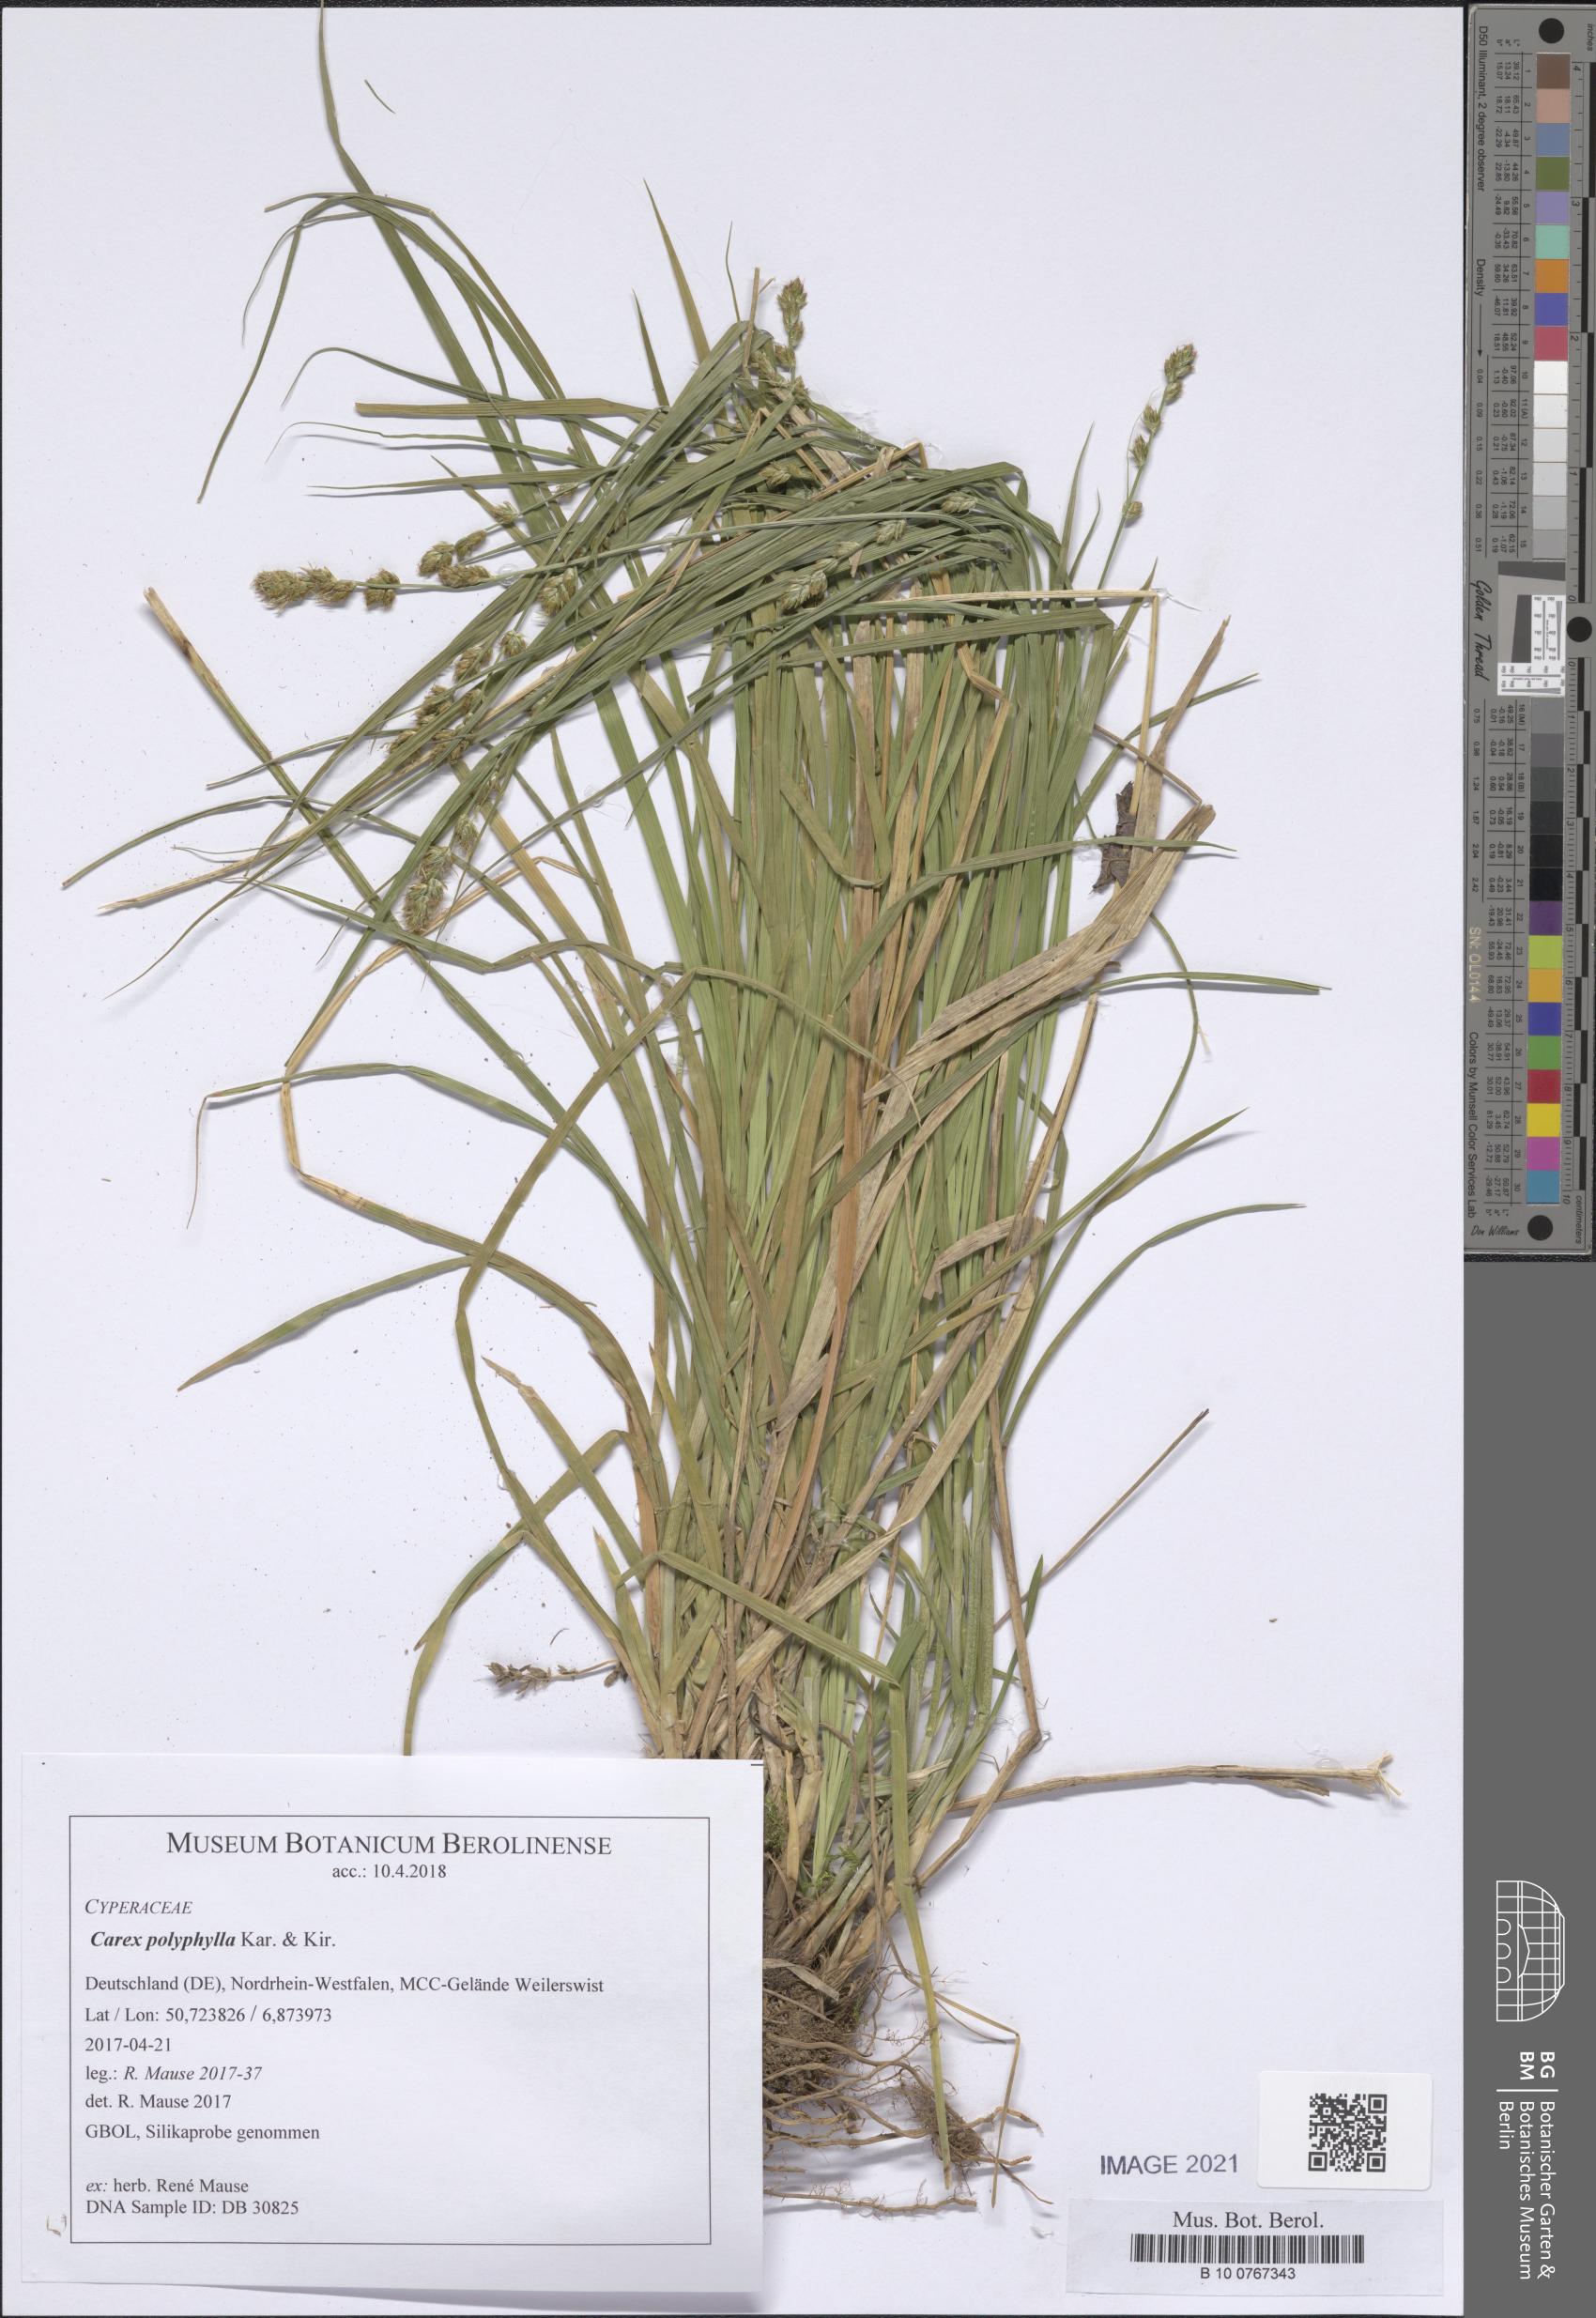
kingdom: Plantae
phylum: Tracheophyta
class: Liliopsida
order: Poales
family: Cyperaceae
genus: Carex
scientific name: Carex polyphylla
